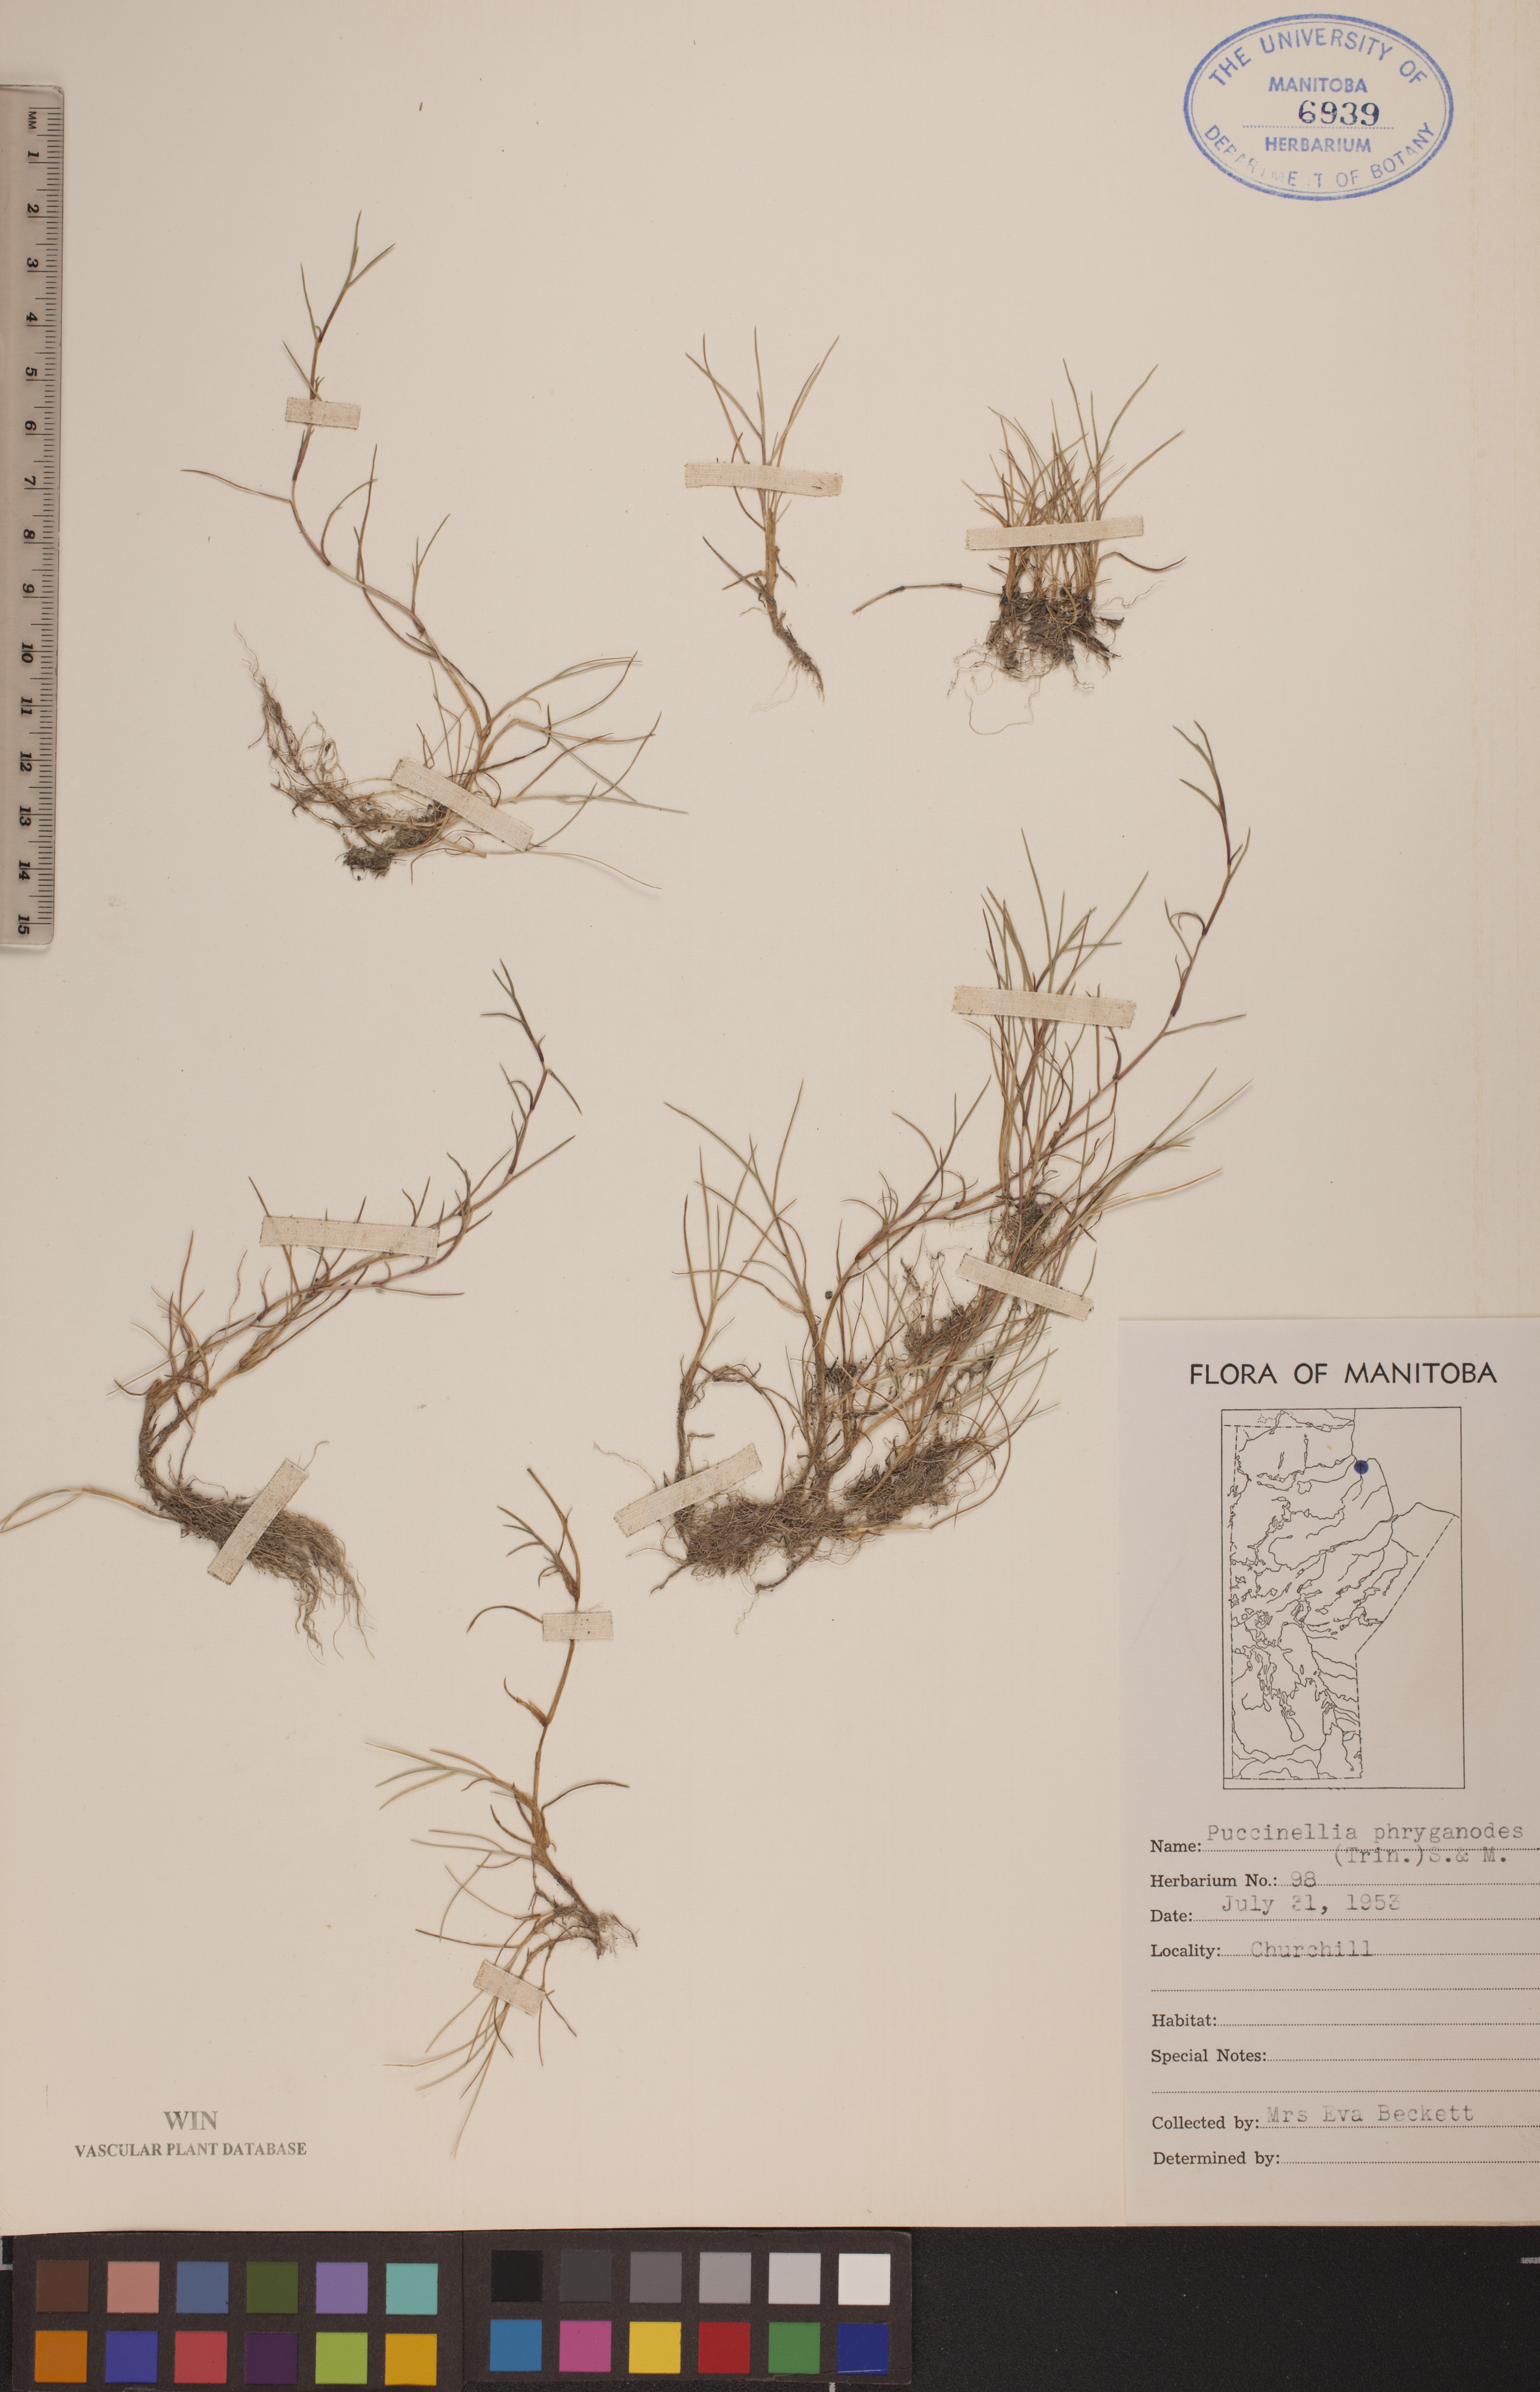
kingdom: Plantae
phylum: Tracheophyta
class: Liliopsida
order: Poales
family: Poaceae
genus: Puccinellia
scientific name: Puccinellia phryganodes
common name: Creeping alkaligrass
